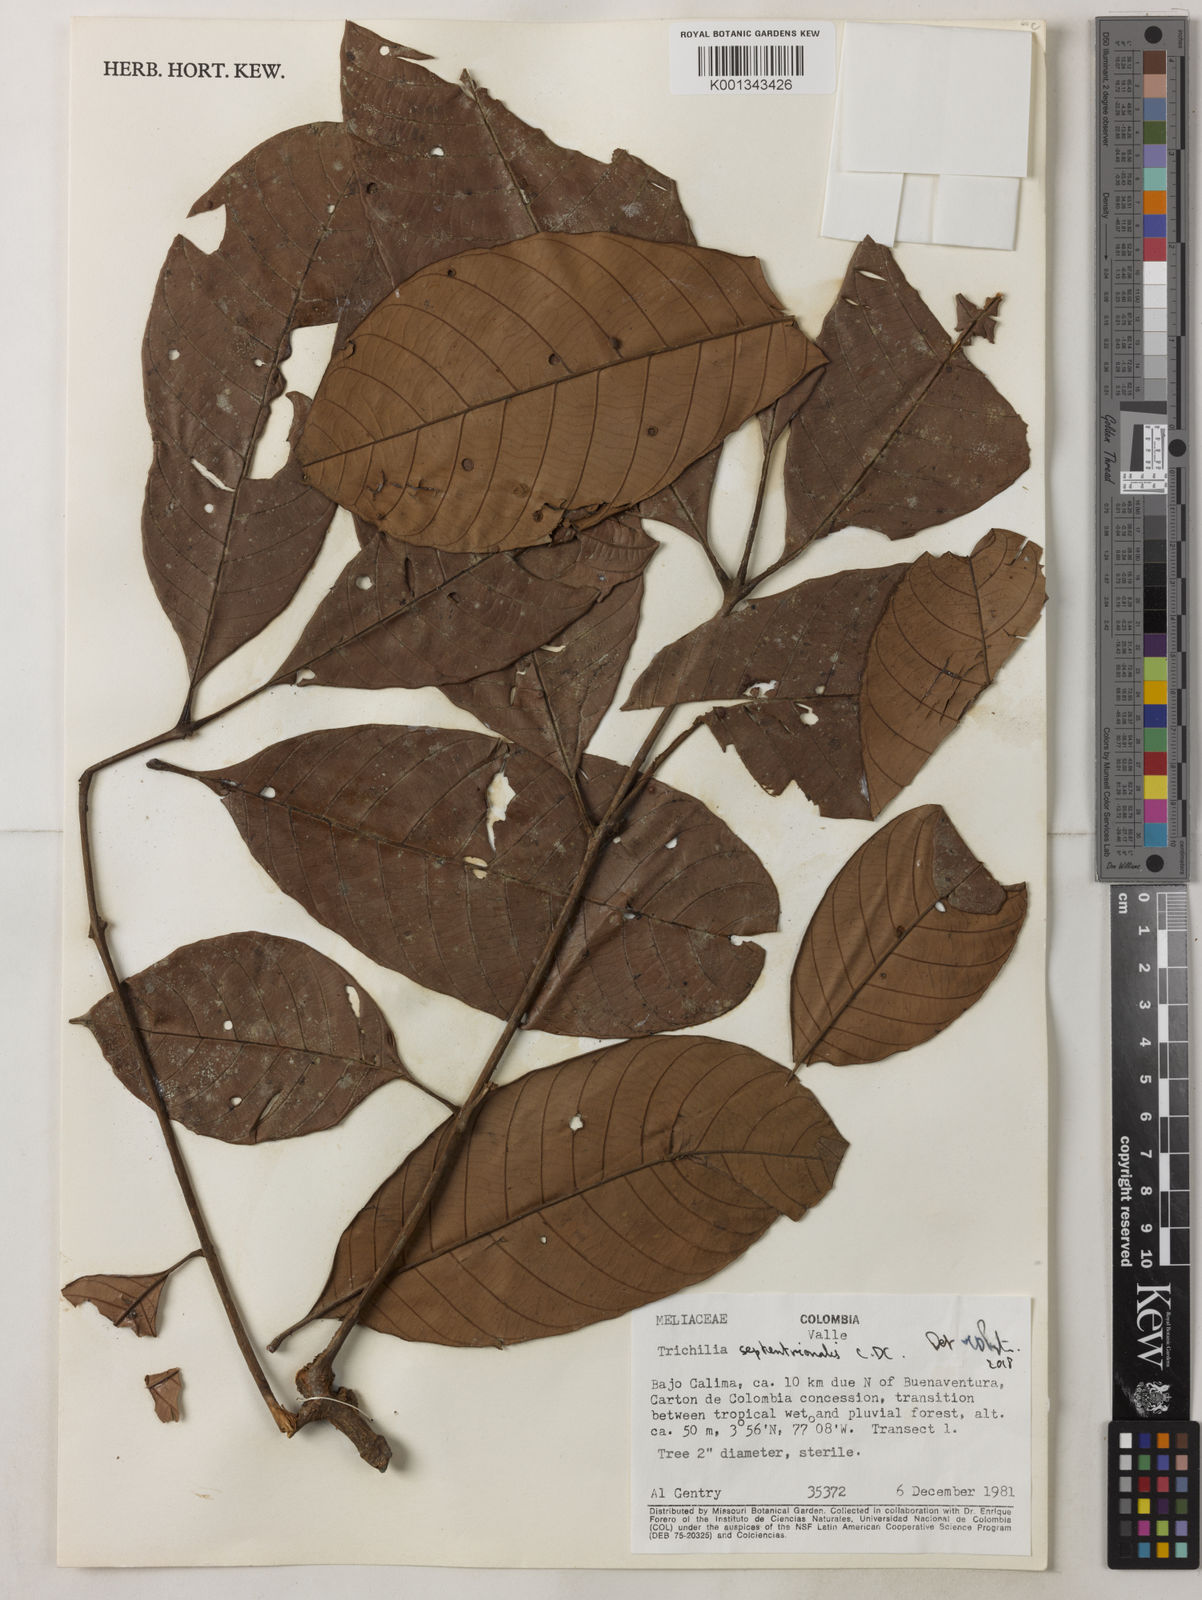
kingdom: Plantae
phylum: Tracheophyta
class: Magnoliopsida
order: Sapindales
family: Meliaceae
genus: Trichilia
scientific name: Trichilia septentrionalis
